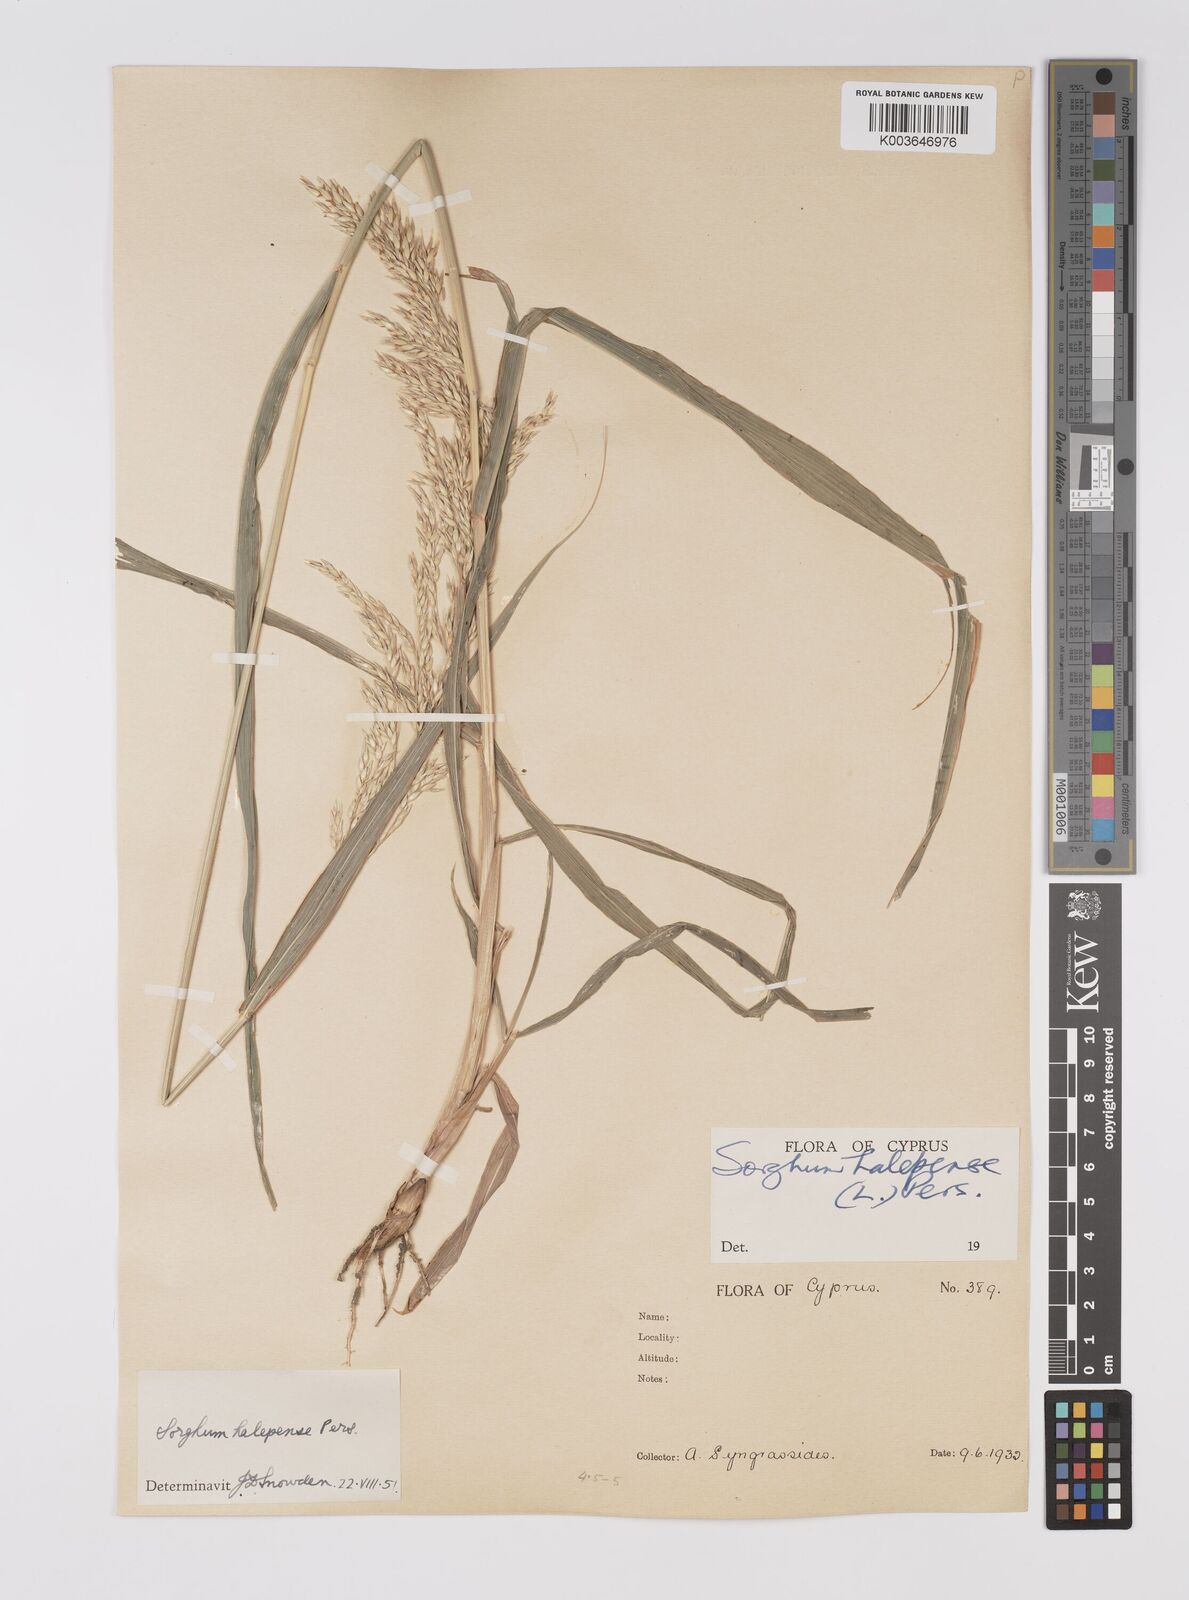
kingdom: Plantae
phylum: Tracheophyta
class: Liliopsida
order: Poales
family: Poaceae
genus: Sorghum
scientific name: Sorghum halepense
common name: Johnson-grass
